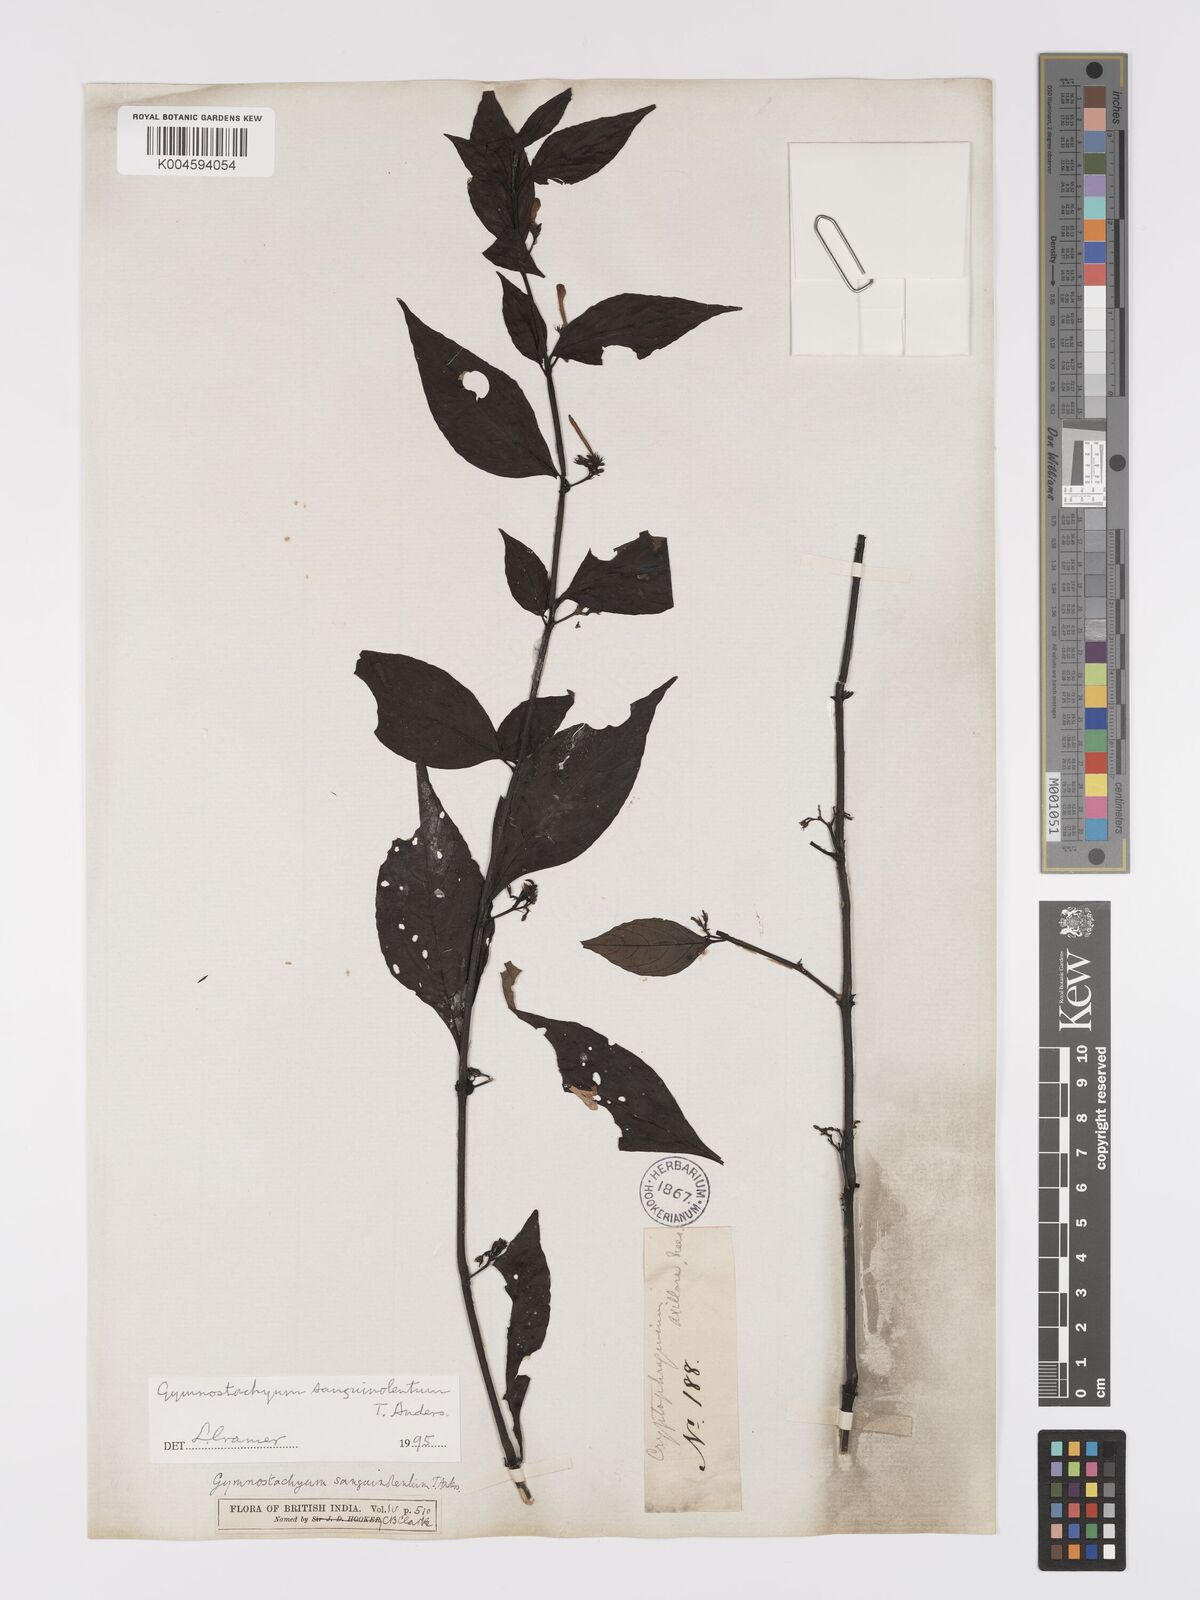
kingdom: Plantae
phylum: Tracheophyta
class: Magnoliopsida
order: Lamiales
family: Acanthaceae
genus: Gymnostachyum
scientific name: Gymnostachyum sanguinolentum
